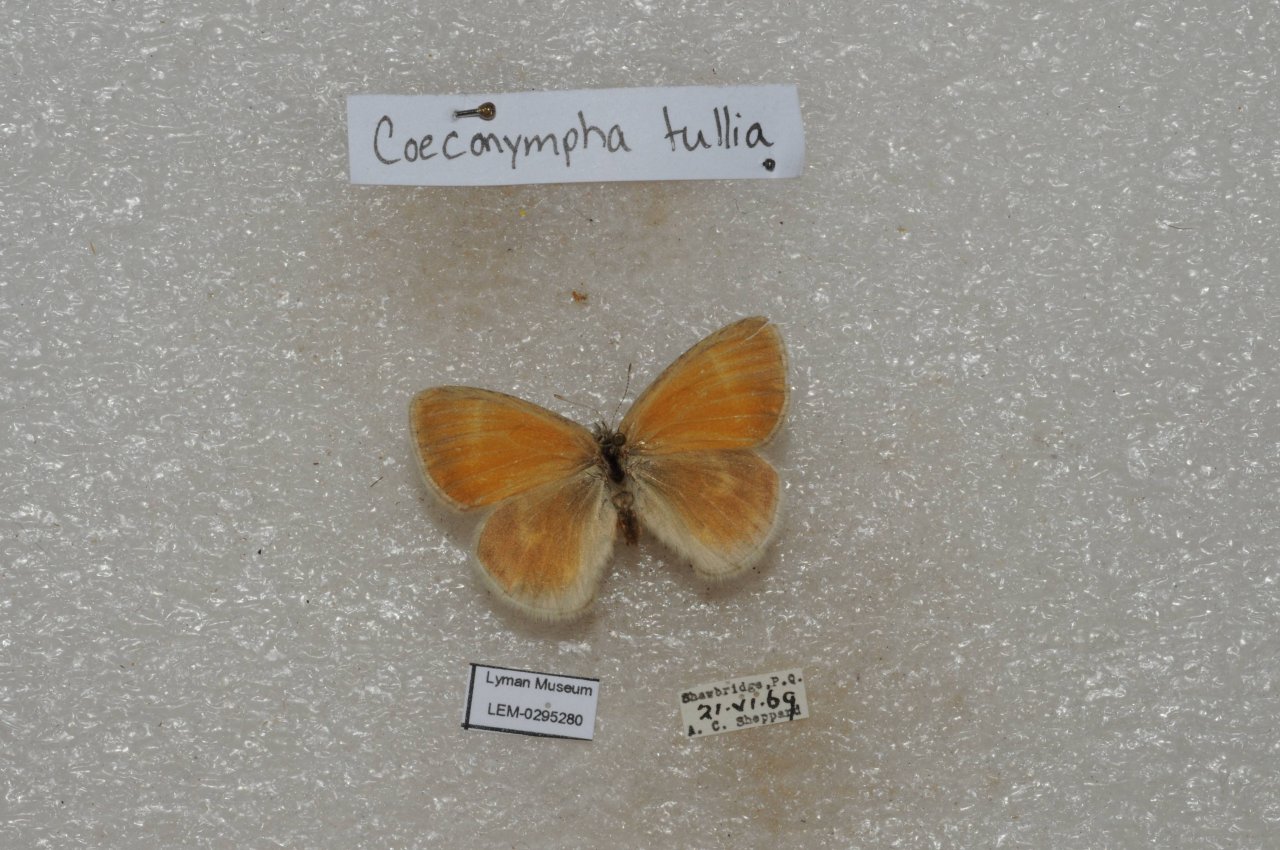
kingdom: Animalia
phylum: Arthropoda
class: Insecta
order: Lepidoptera
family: Nymphalidae
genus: Coenonympha
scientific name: Coenonympha tullia
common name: Large Heath
